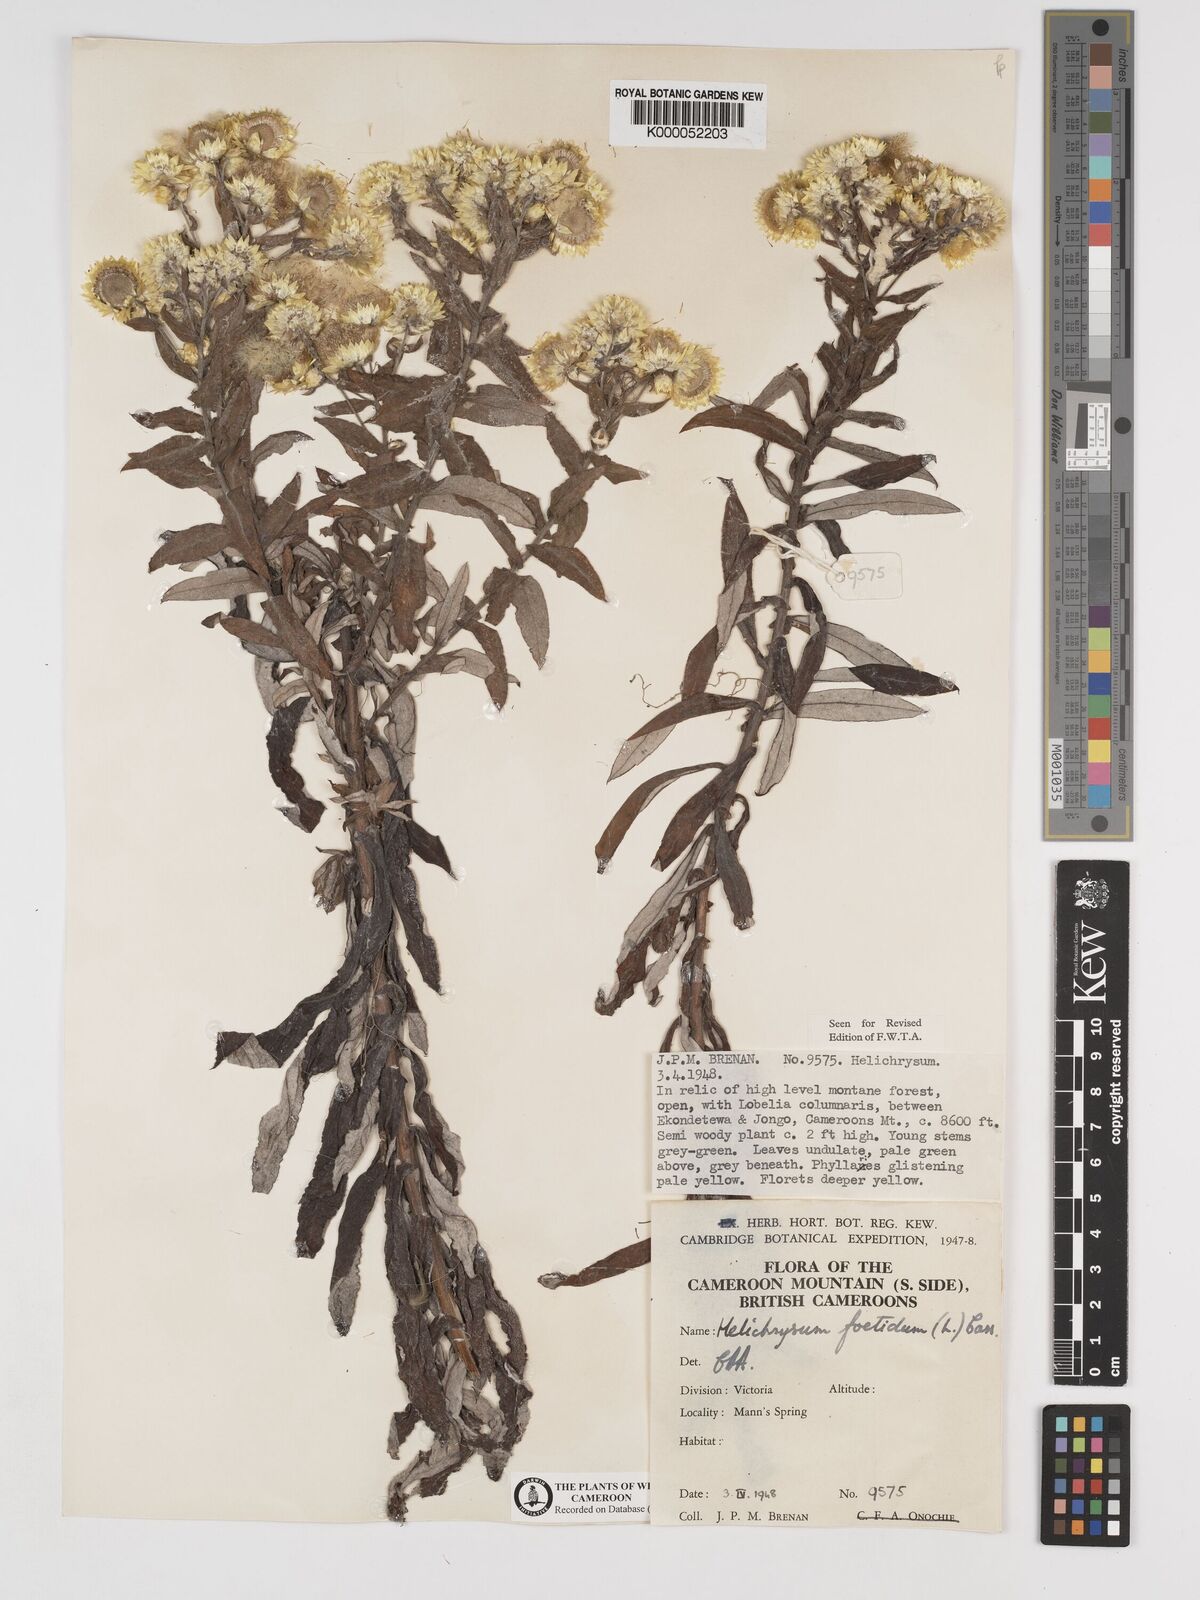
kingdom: Plantae
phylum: Tracheophyta
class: Magnoliopsida
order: Asterales
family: Asteraceae
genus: Helichrysum
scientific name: Helichrysum foetidum
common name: Stinking everlasting
